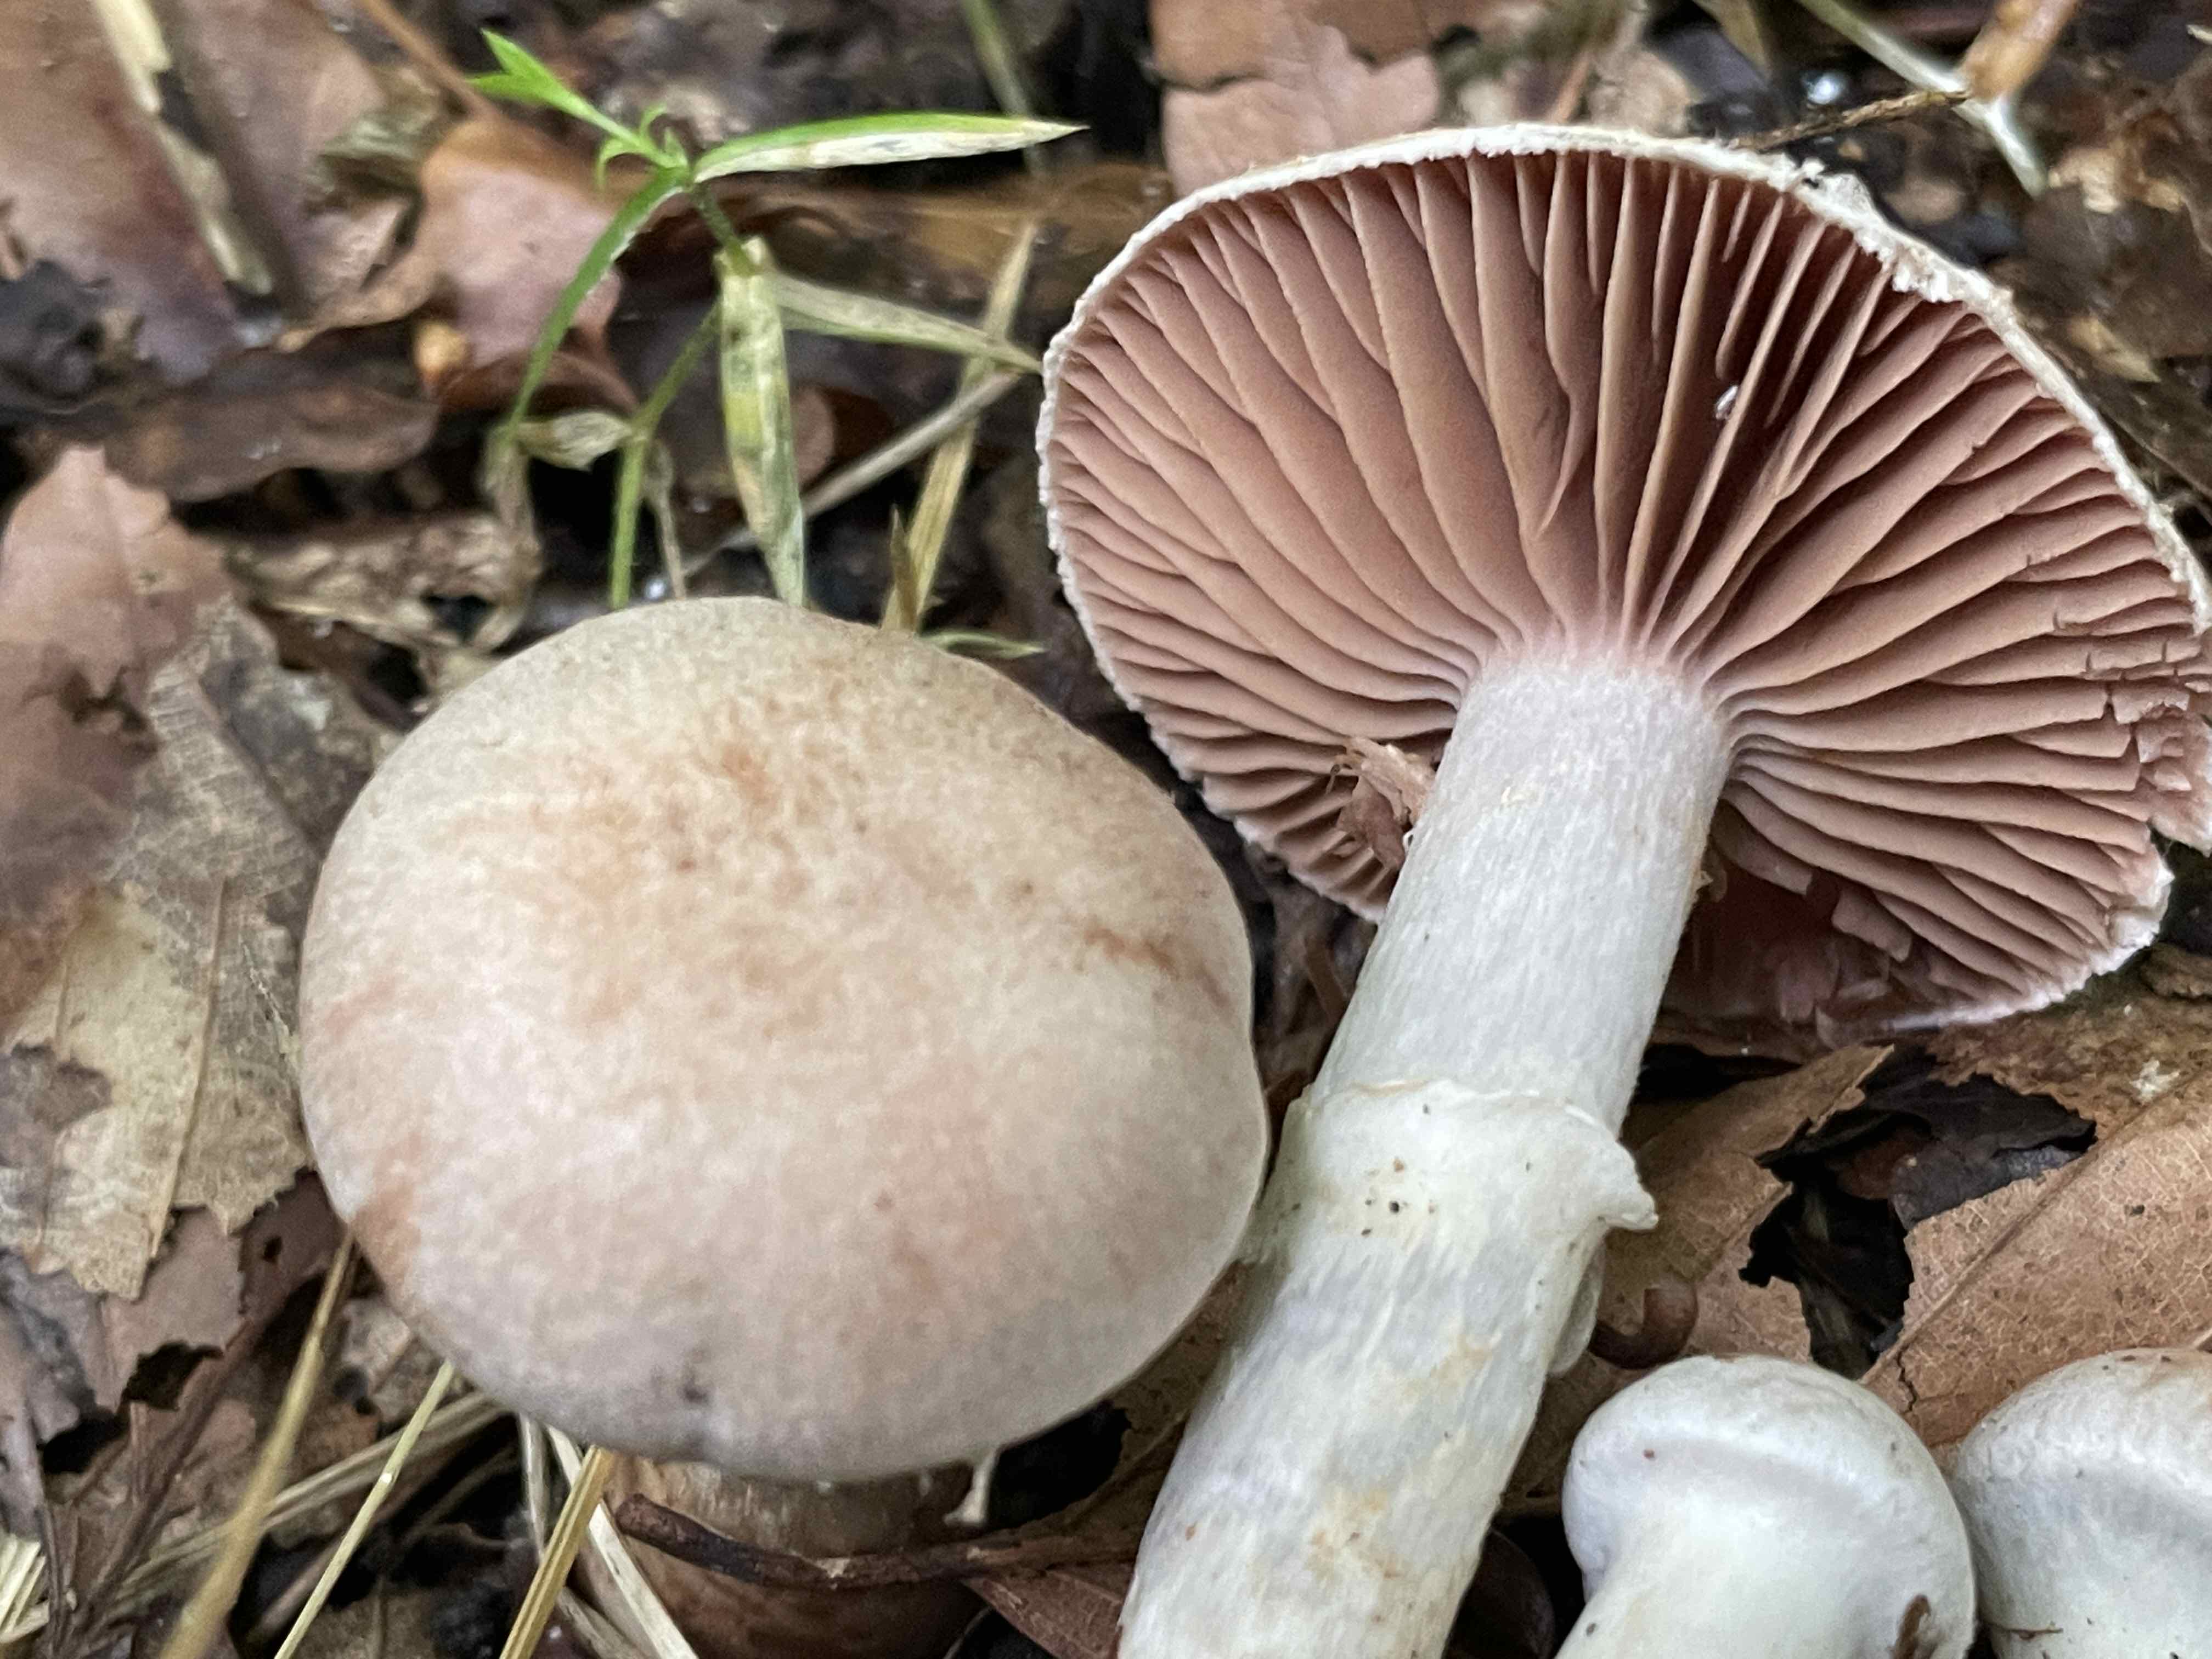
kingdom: Fungi
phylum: Basidiomycota
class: Agaricomycetes
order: Agaricales
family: Cortinariaceae
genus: Cortinarius
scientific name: Cortinarius torvus
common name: champignonagtig slørhat
